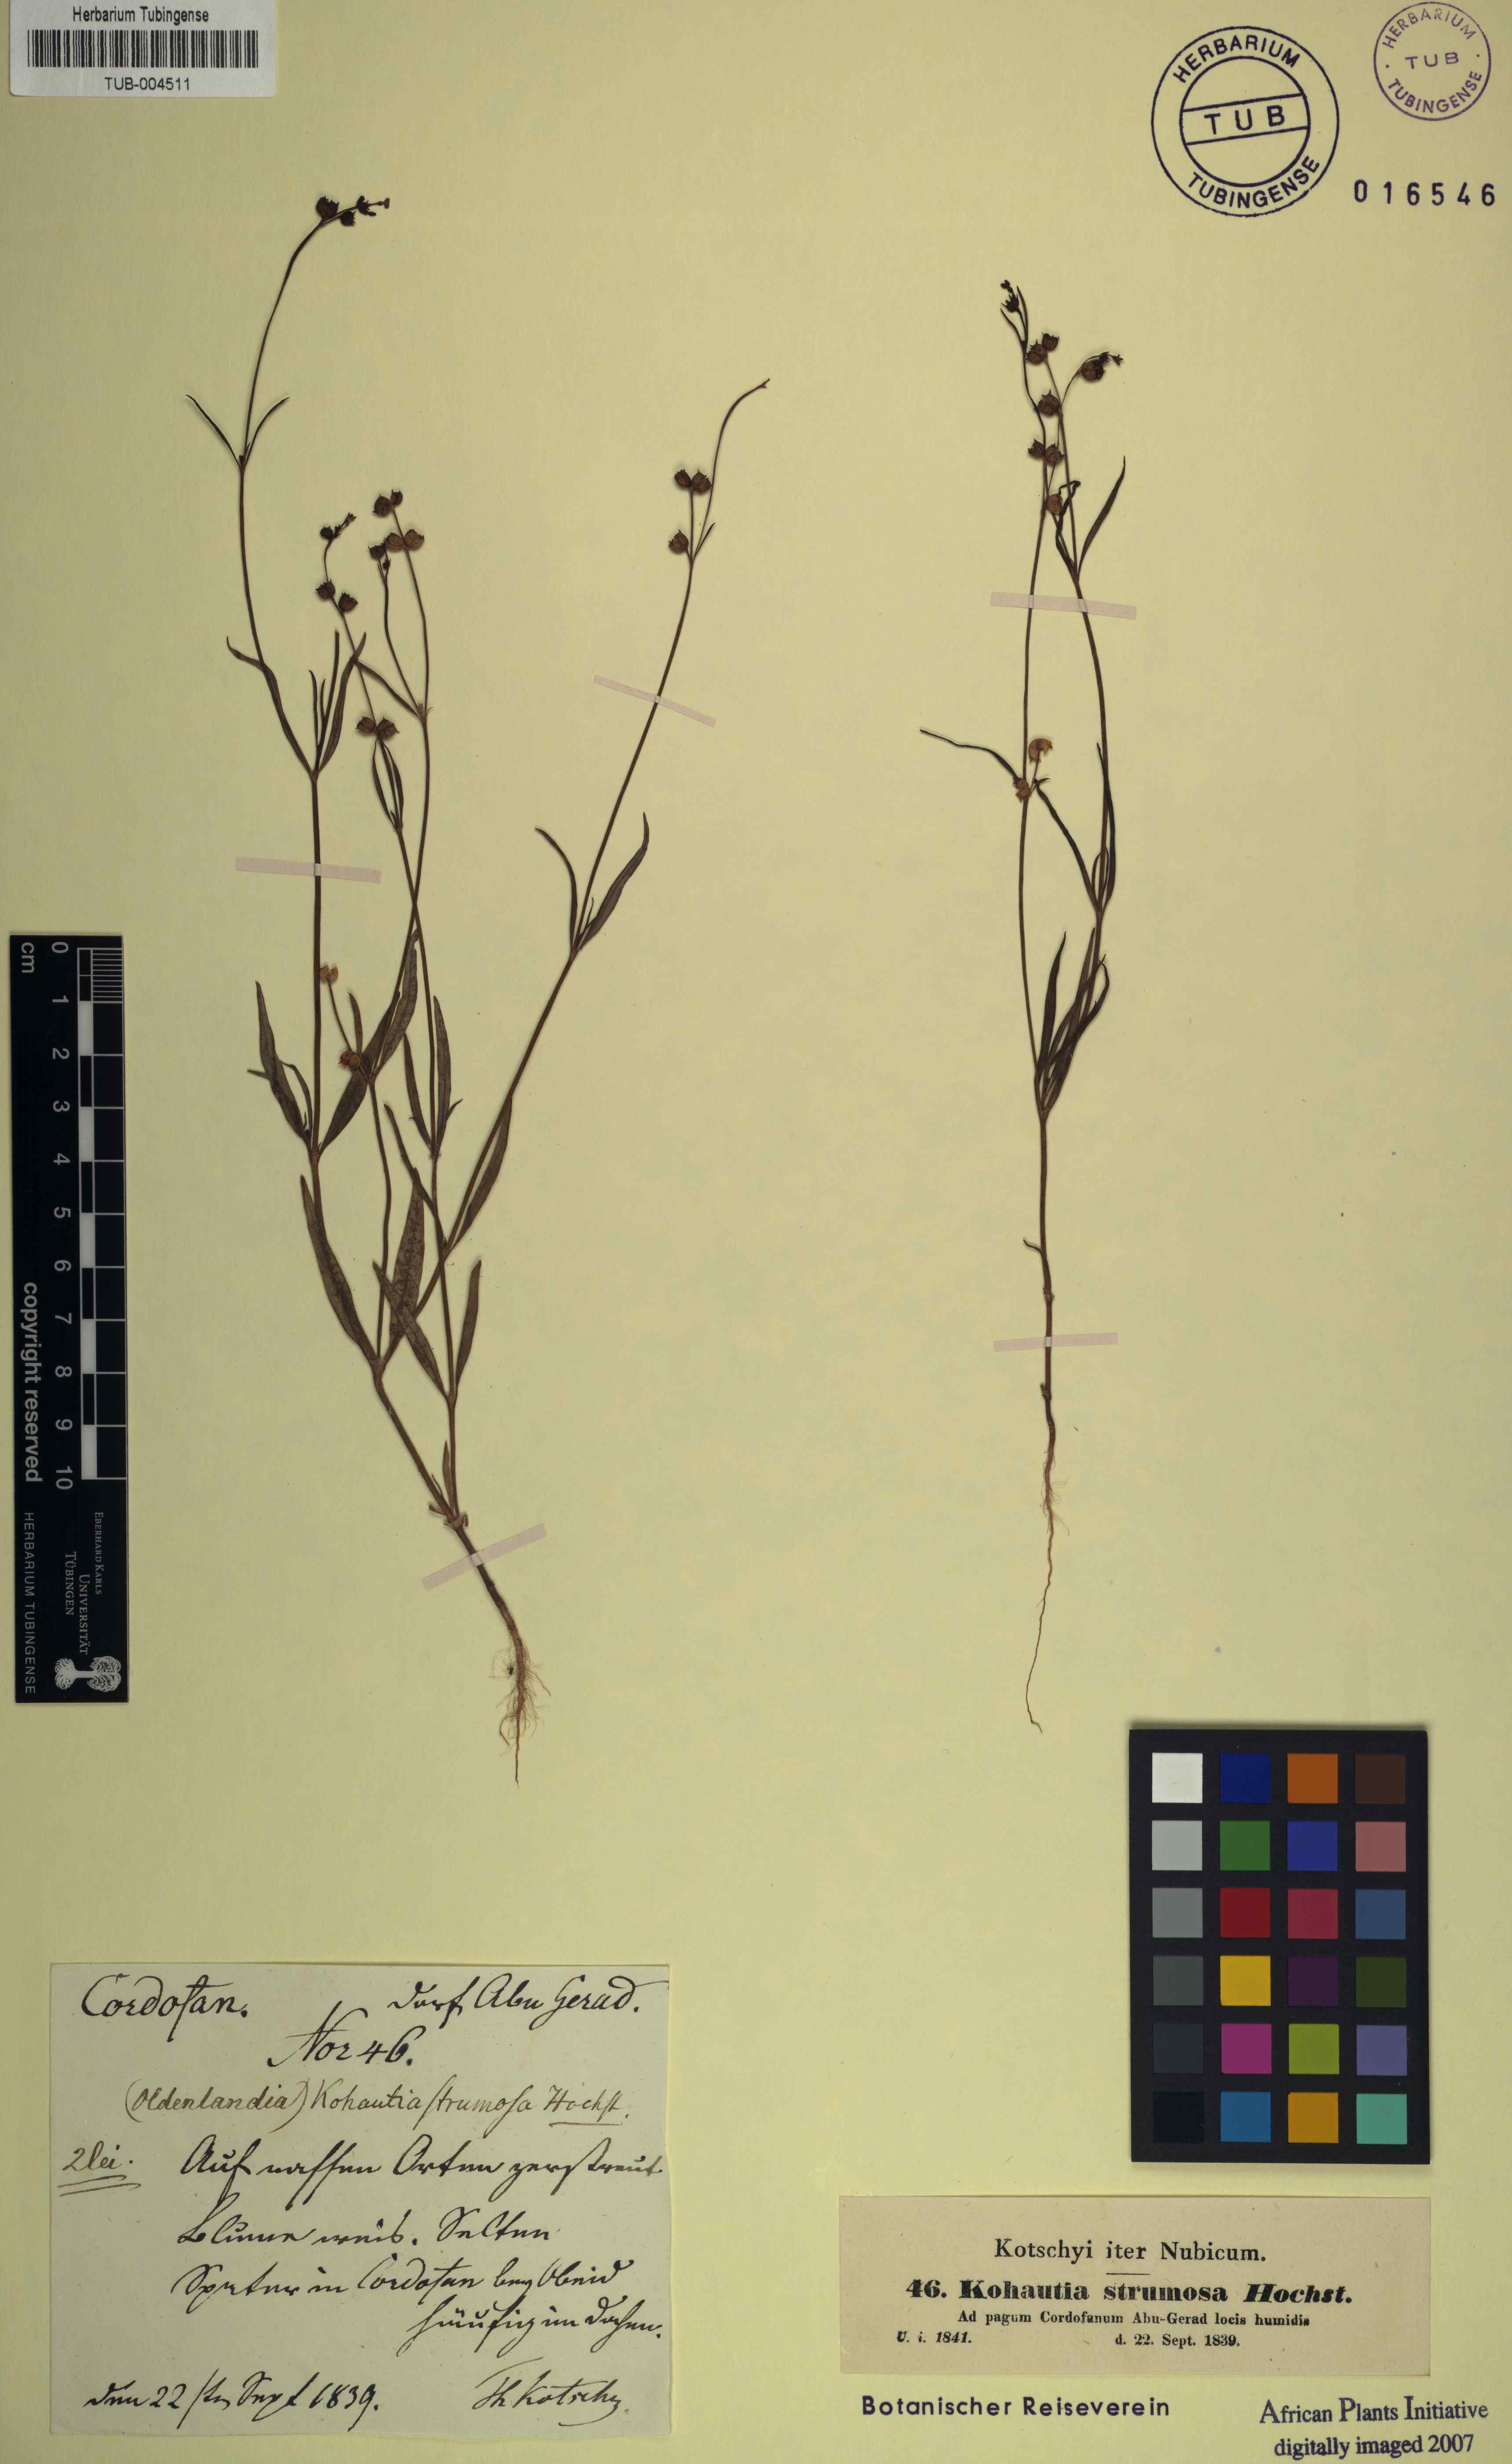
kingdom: Plantae
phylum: Tracheophyta
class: Magnoliopsida
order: Gentianales
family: Rubiaceae
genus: Kohautia
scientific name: Kohautia aspera
